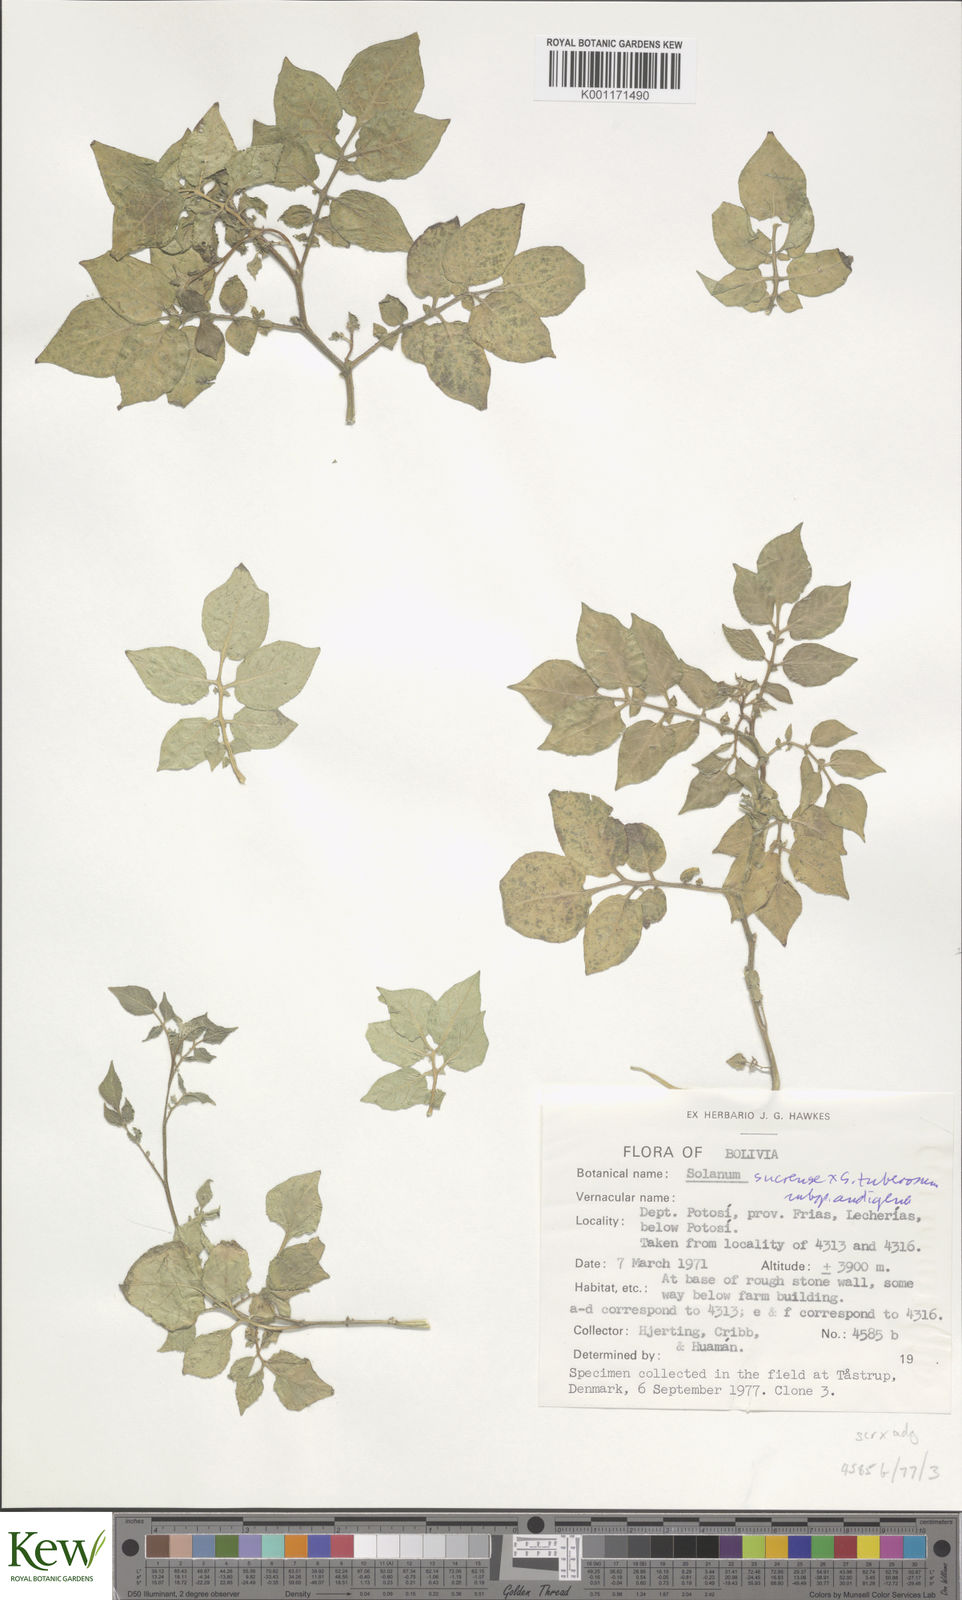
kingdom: Plantae
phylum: Tracheophyta
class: Magnoliopsida
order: Solanales
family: Solanaceae
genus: Solanum
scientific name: Solanum tuberosum
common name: Potato
